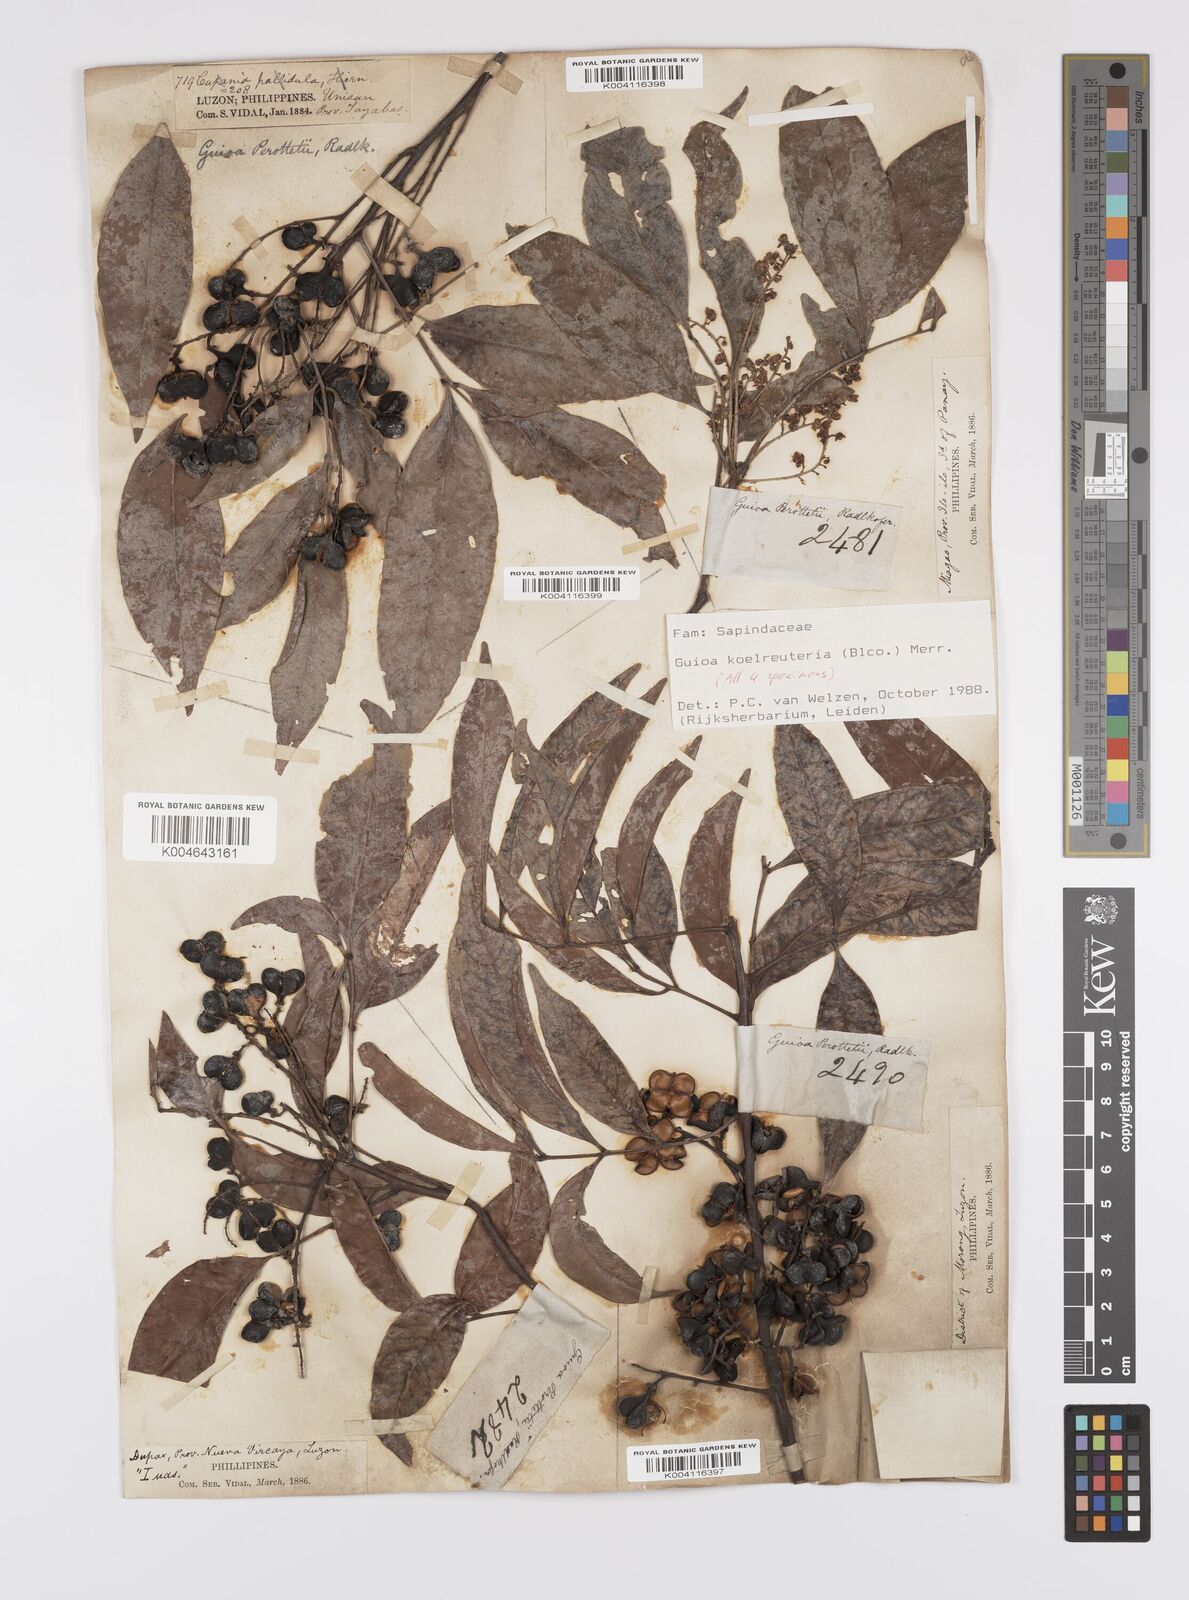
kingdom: Plantae
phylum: Tracheophyta
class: Magnoliopsida
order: Sapindales
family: Sapindaceae
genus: Guioa
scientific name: Guioa koelreuteria
